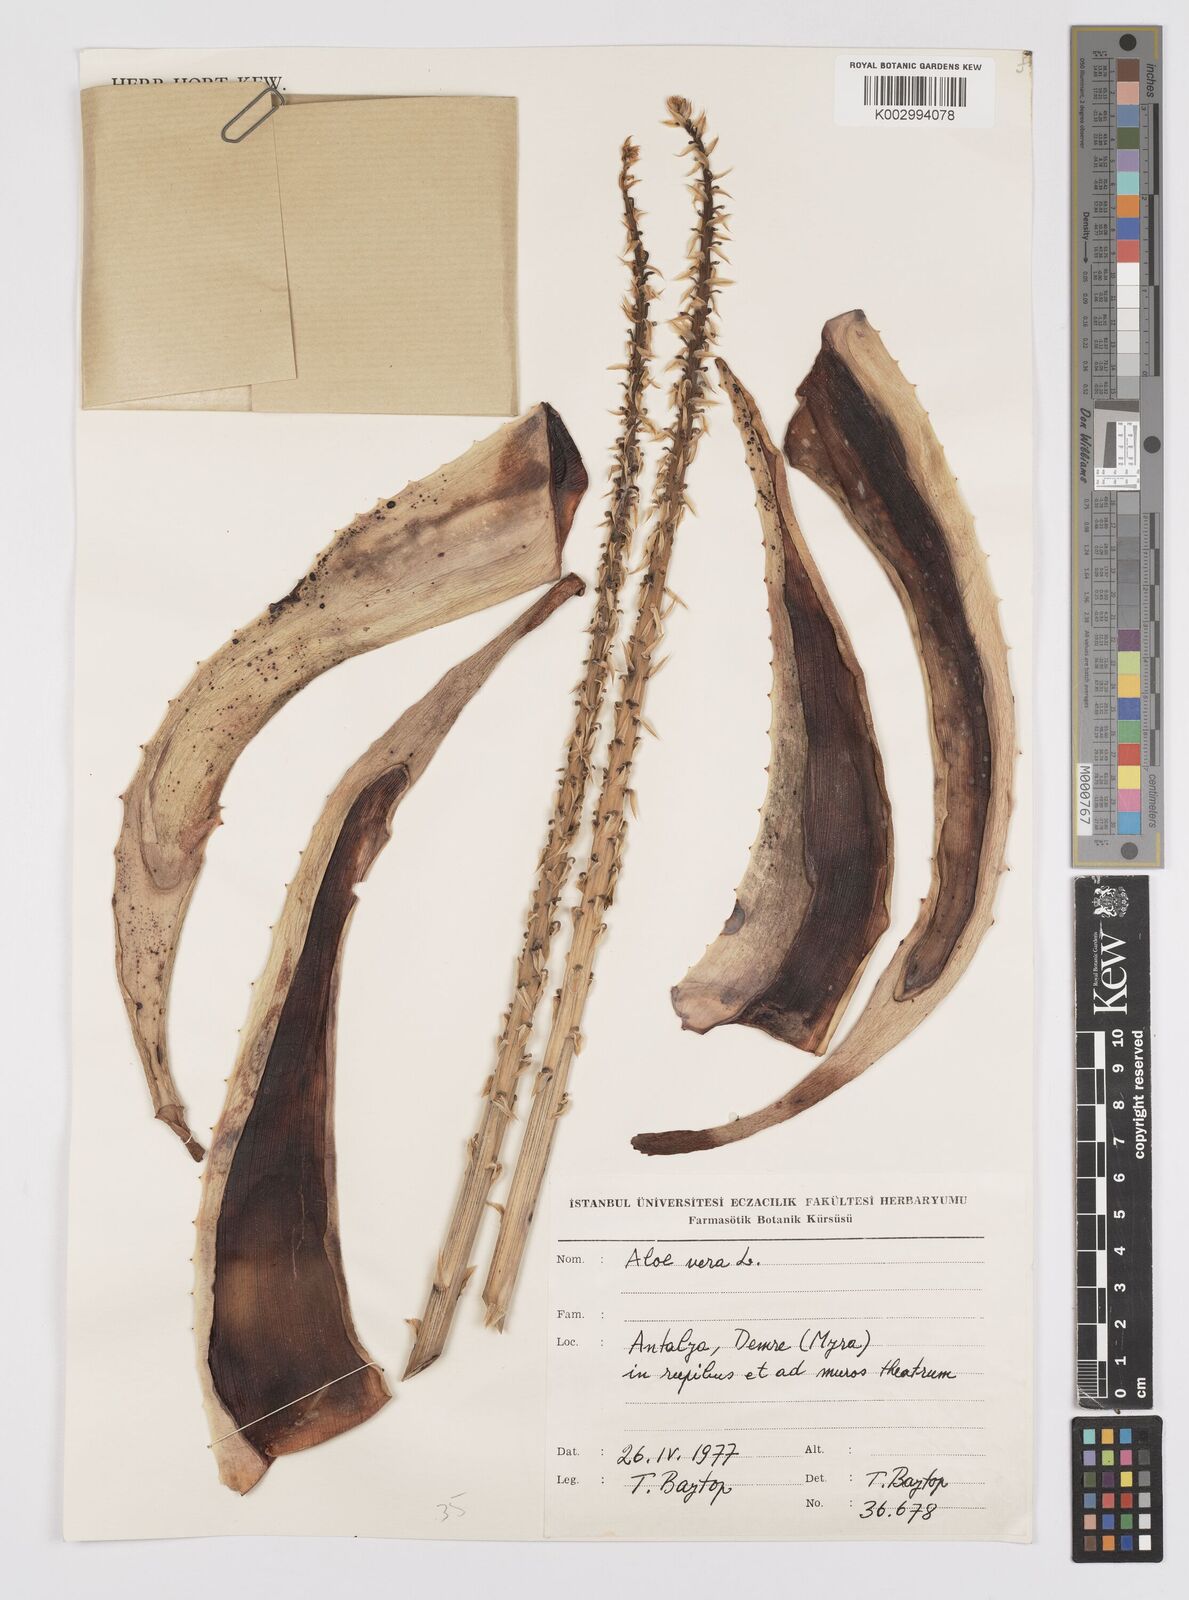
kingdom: Plantae
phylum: Tracheophyta
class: Liliopsida
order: Asparagales
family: Asphodelaceae
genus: Aloe
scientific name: Aloe vera
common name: Barbados aloe
